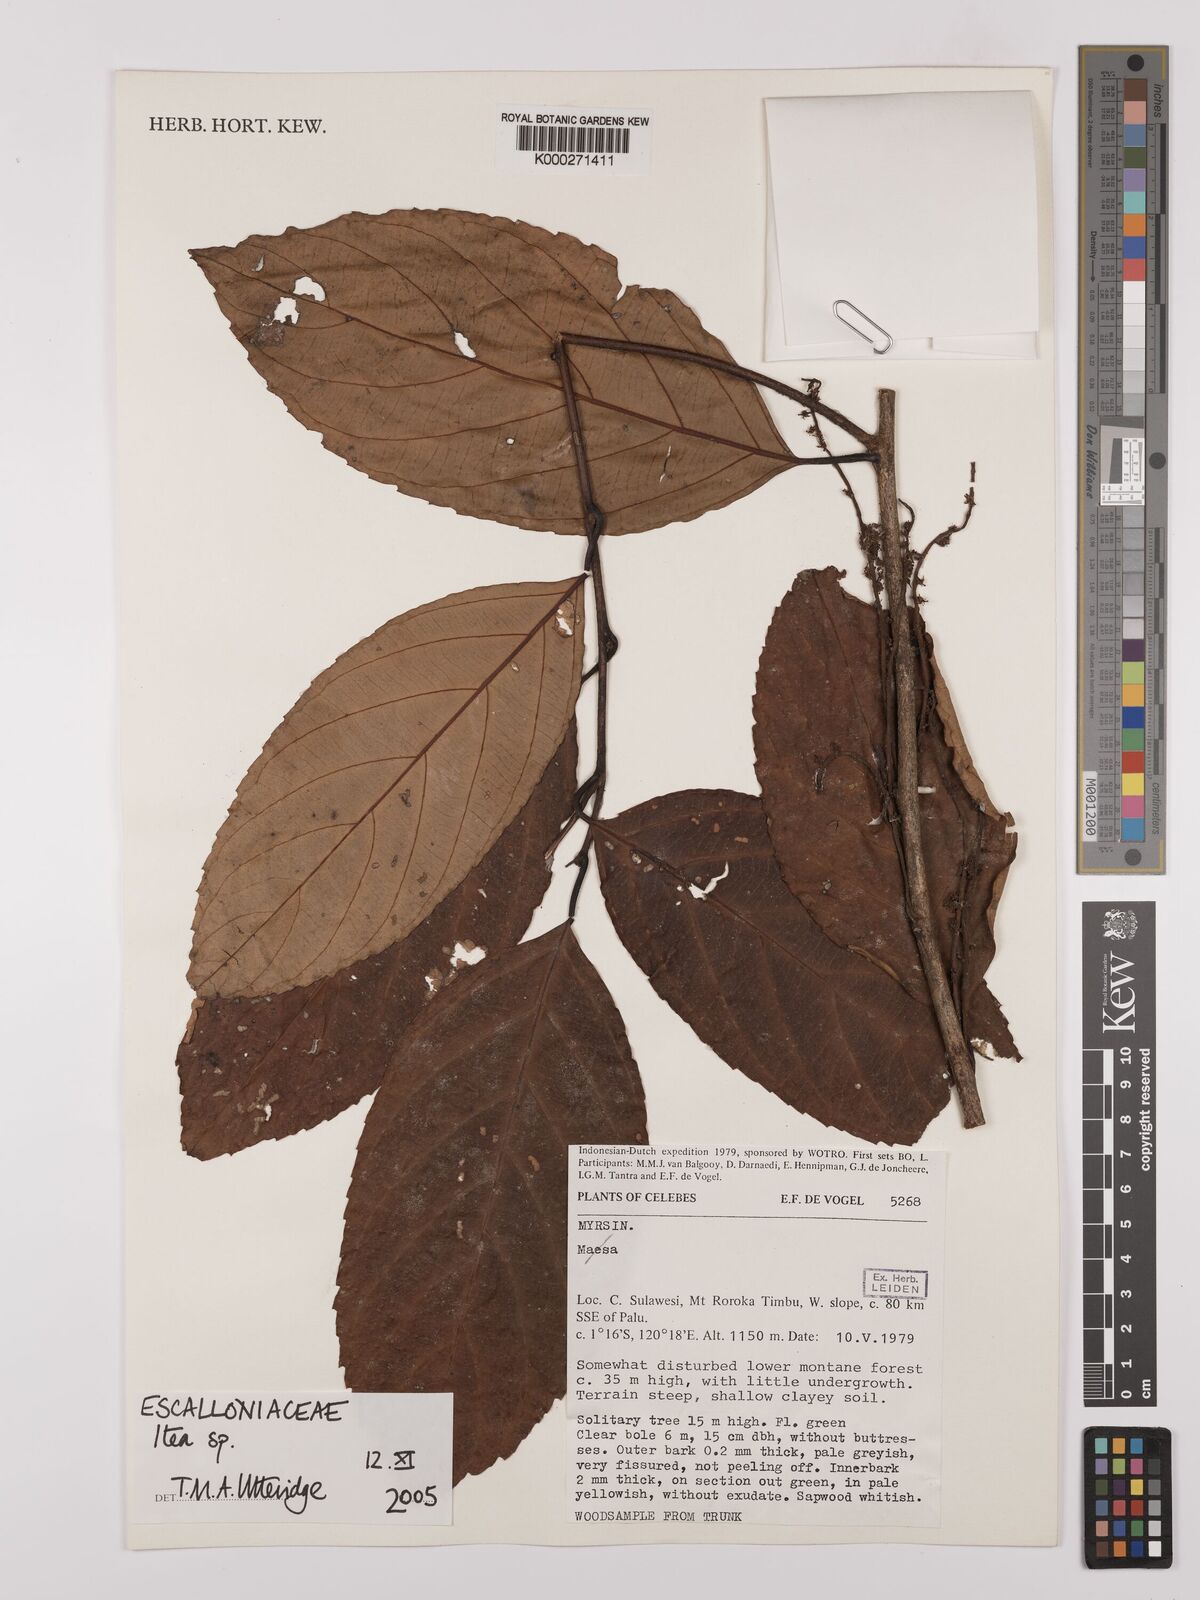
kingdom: Plantae
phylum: Tracheophyta
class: Magnoliopsida
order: Saxifragales
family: Iteaceae
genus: Itea
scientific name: Itea
